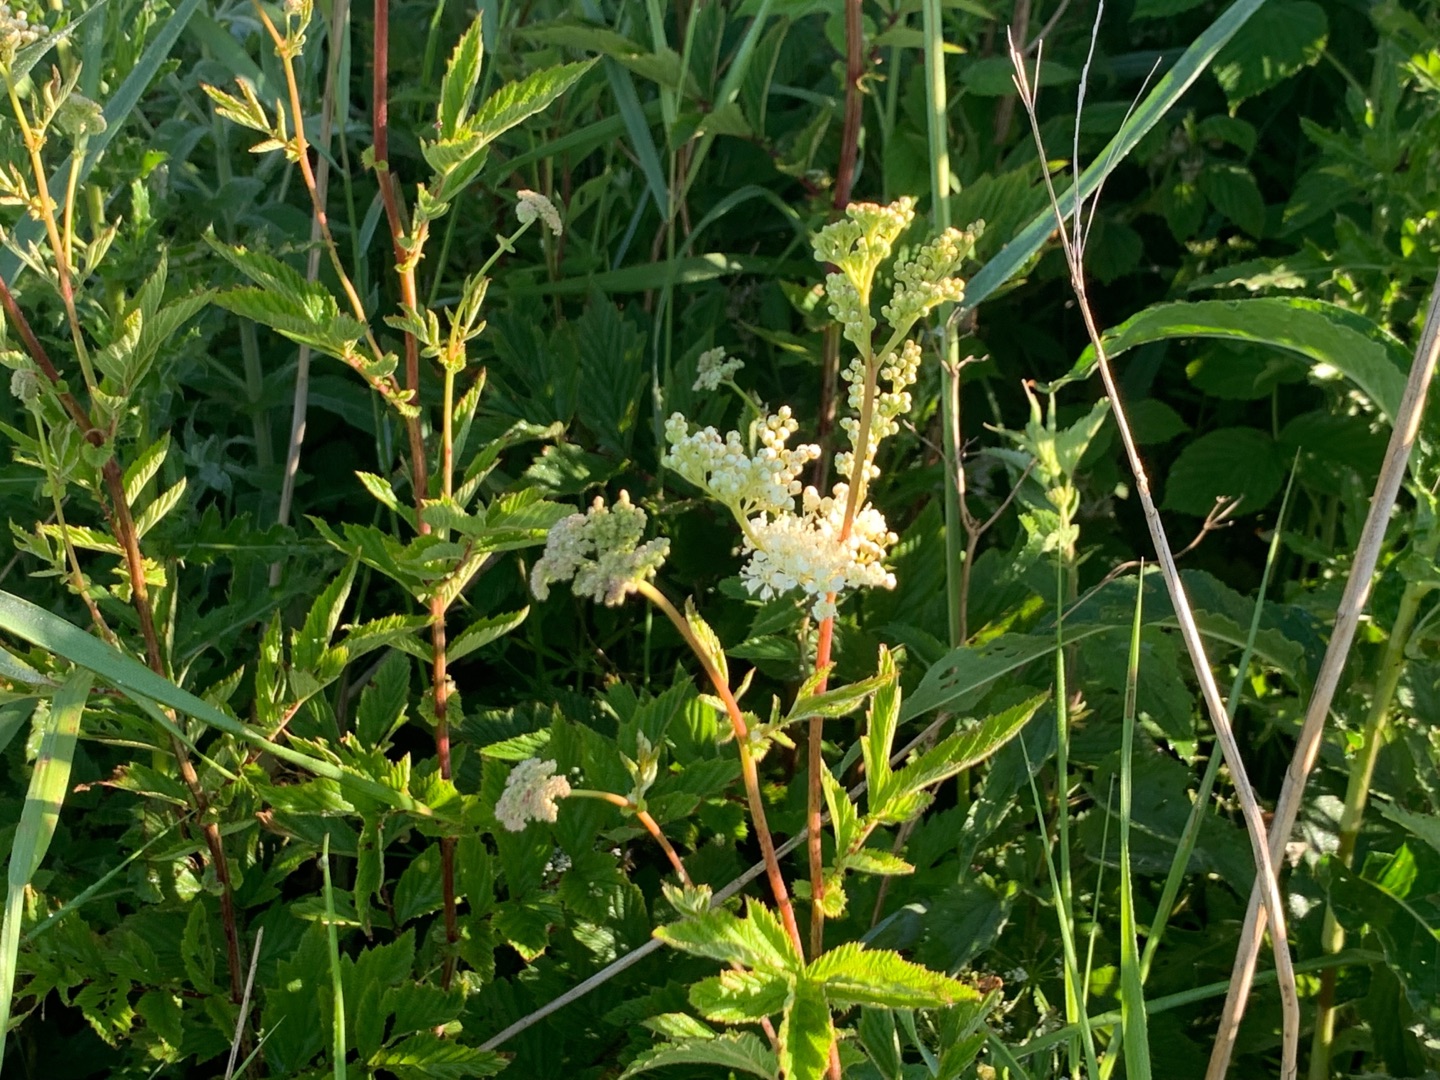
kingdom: Plantae
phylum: Tracheophyta
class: Magnoliopsida
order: Rosales
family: Rosaceae
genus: Filipendula
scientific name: Filipendula ulmaria
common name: Almindelig mjødurt
